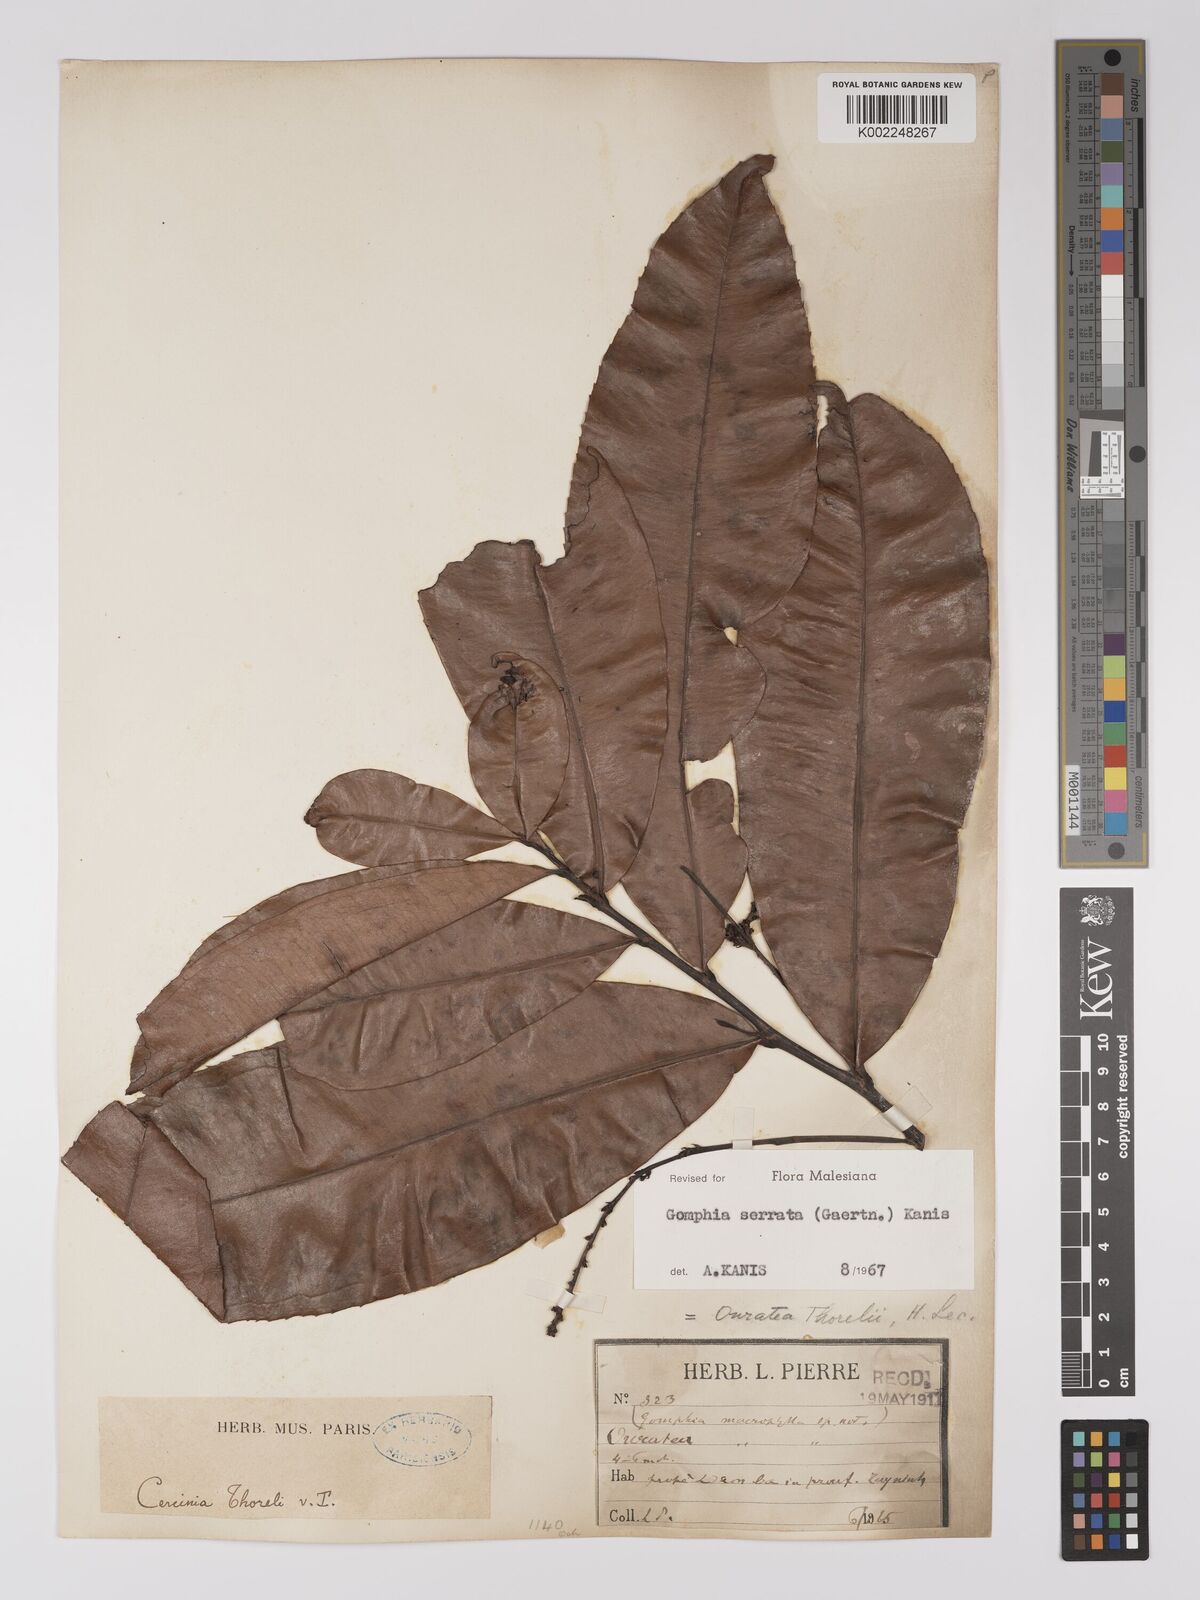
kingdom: Plantae
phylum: Tracheophyta
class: Magnoliopsida
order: Malpighiales
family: Ochnaceae
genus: Gomphia
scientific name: Gomphia serrata
